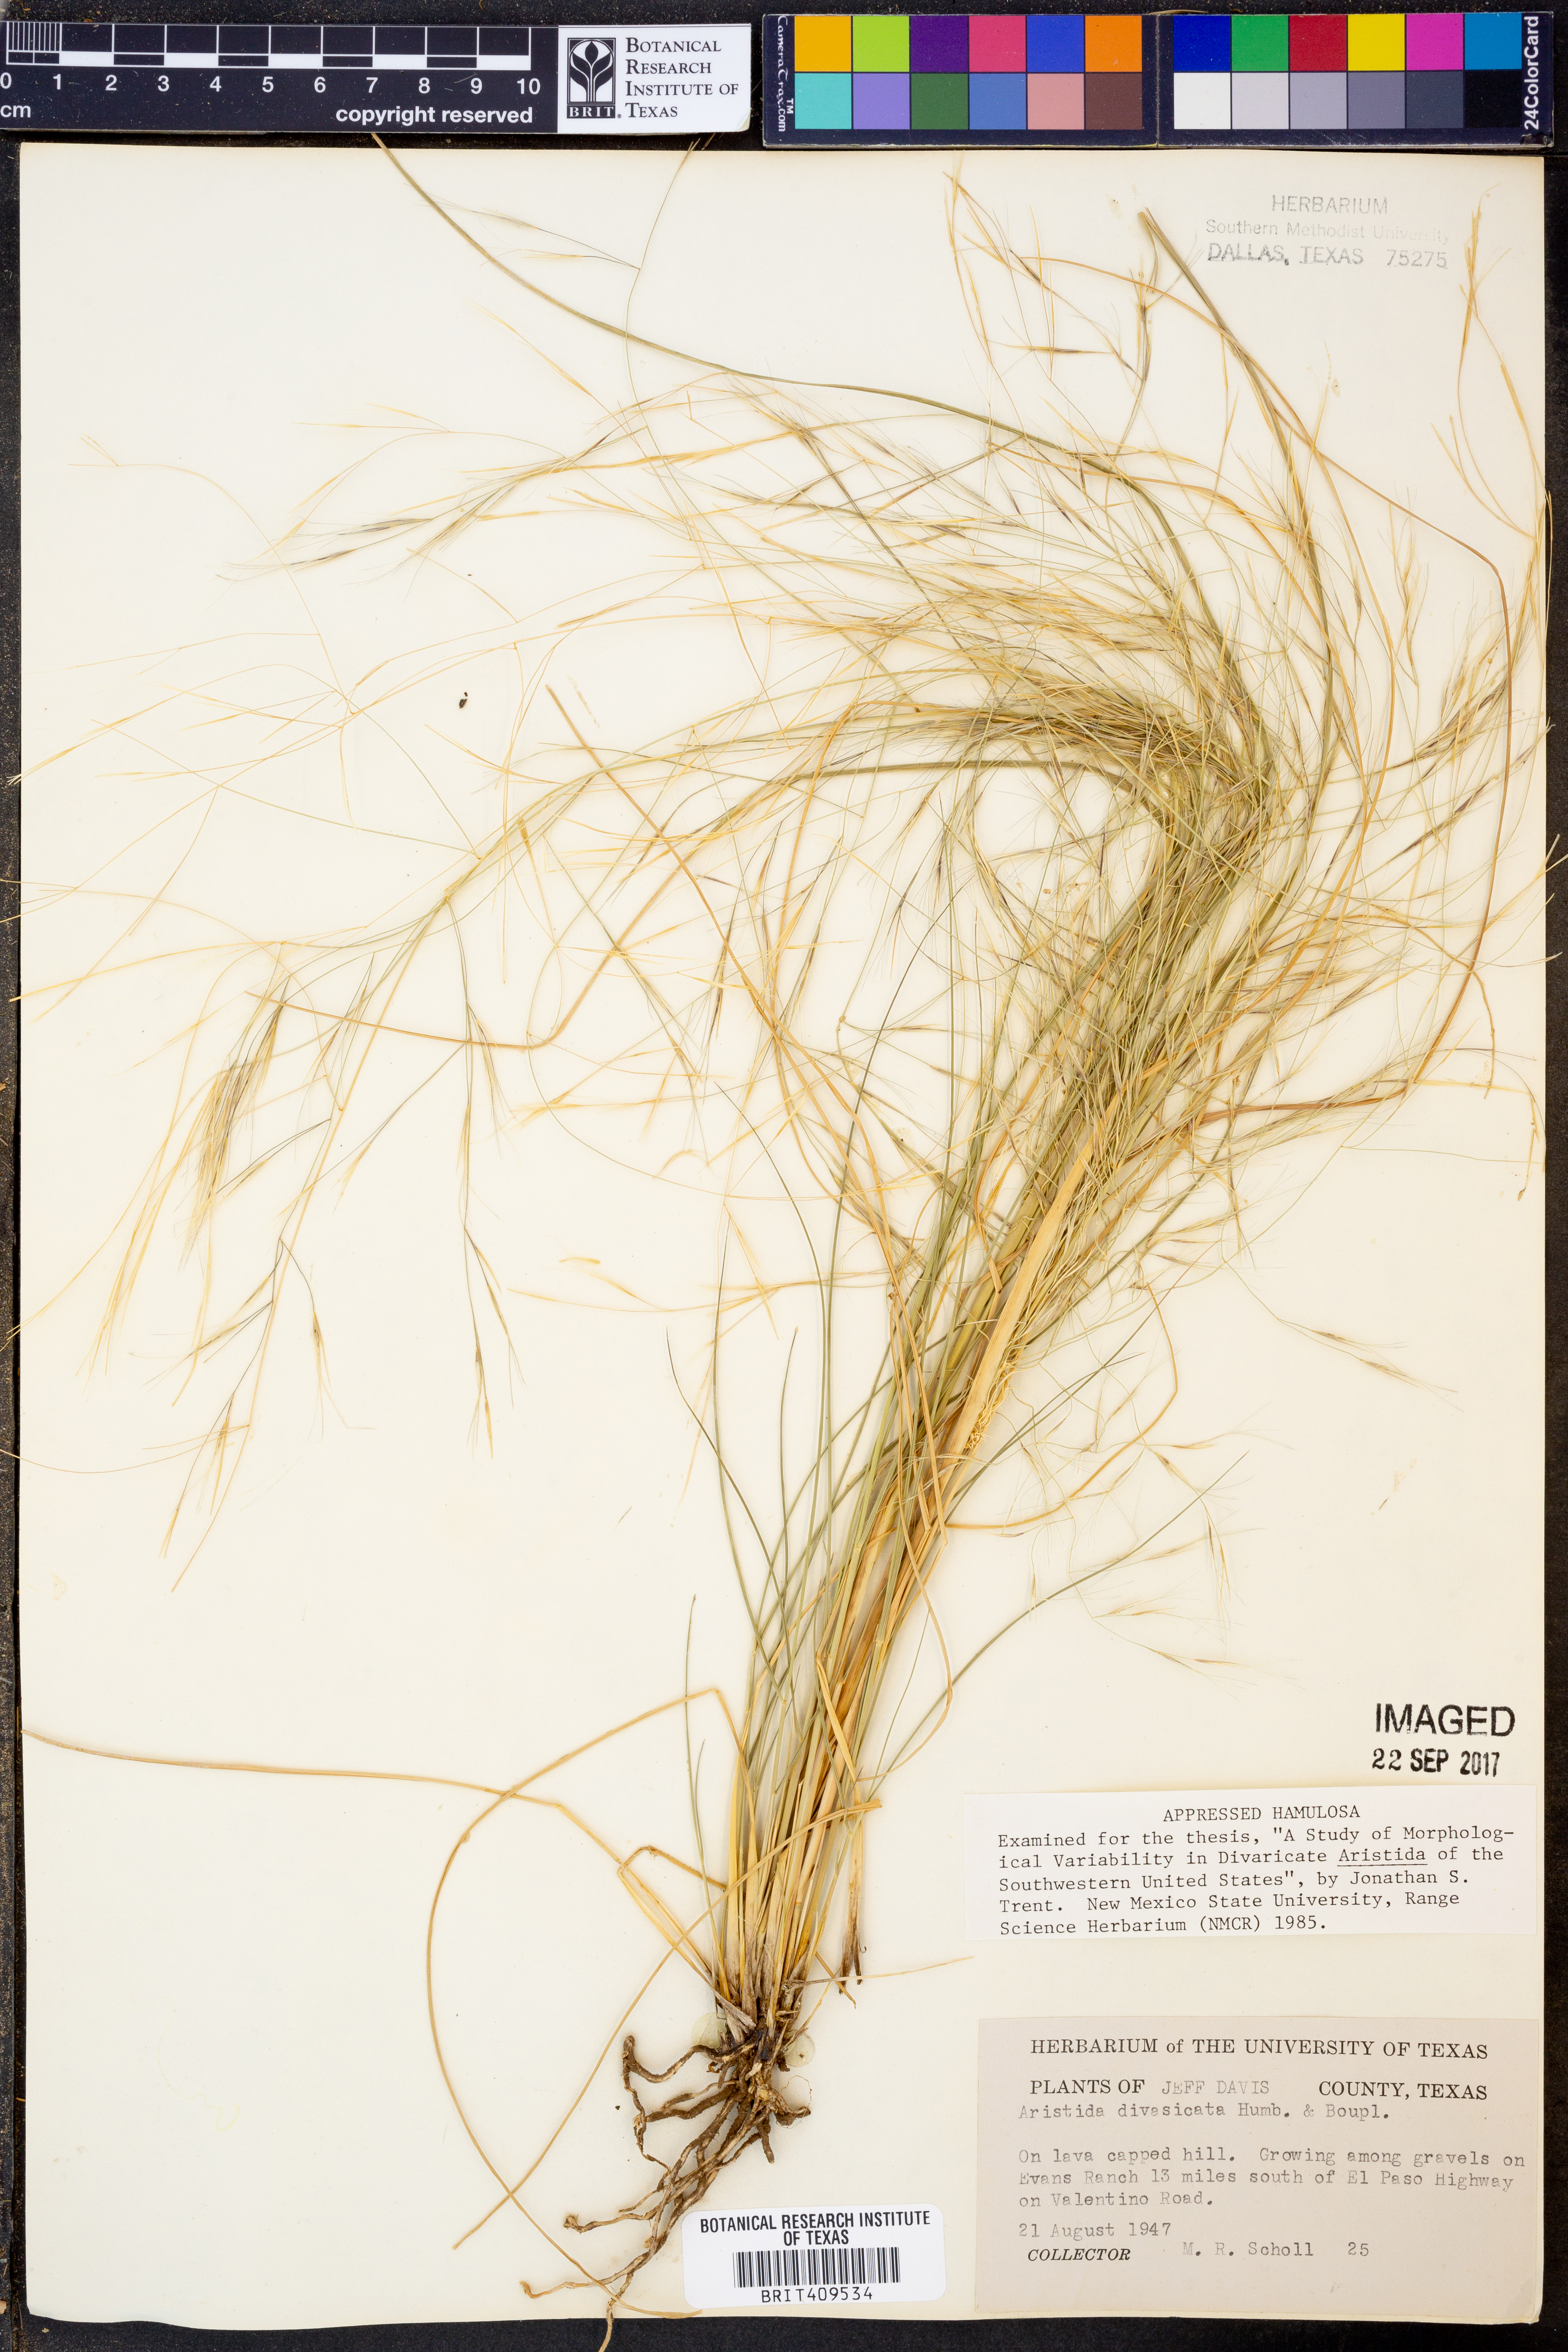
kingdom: Plantae
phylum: Tracheophyta
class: Liliopsida
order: Poales
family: Poaceae
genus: Aristida
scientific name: Aristida divaricata
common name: Poverty grass
